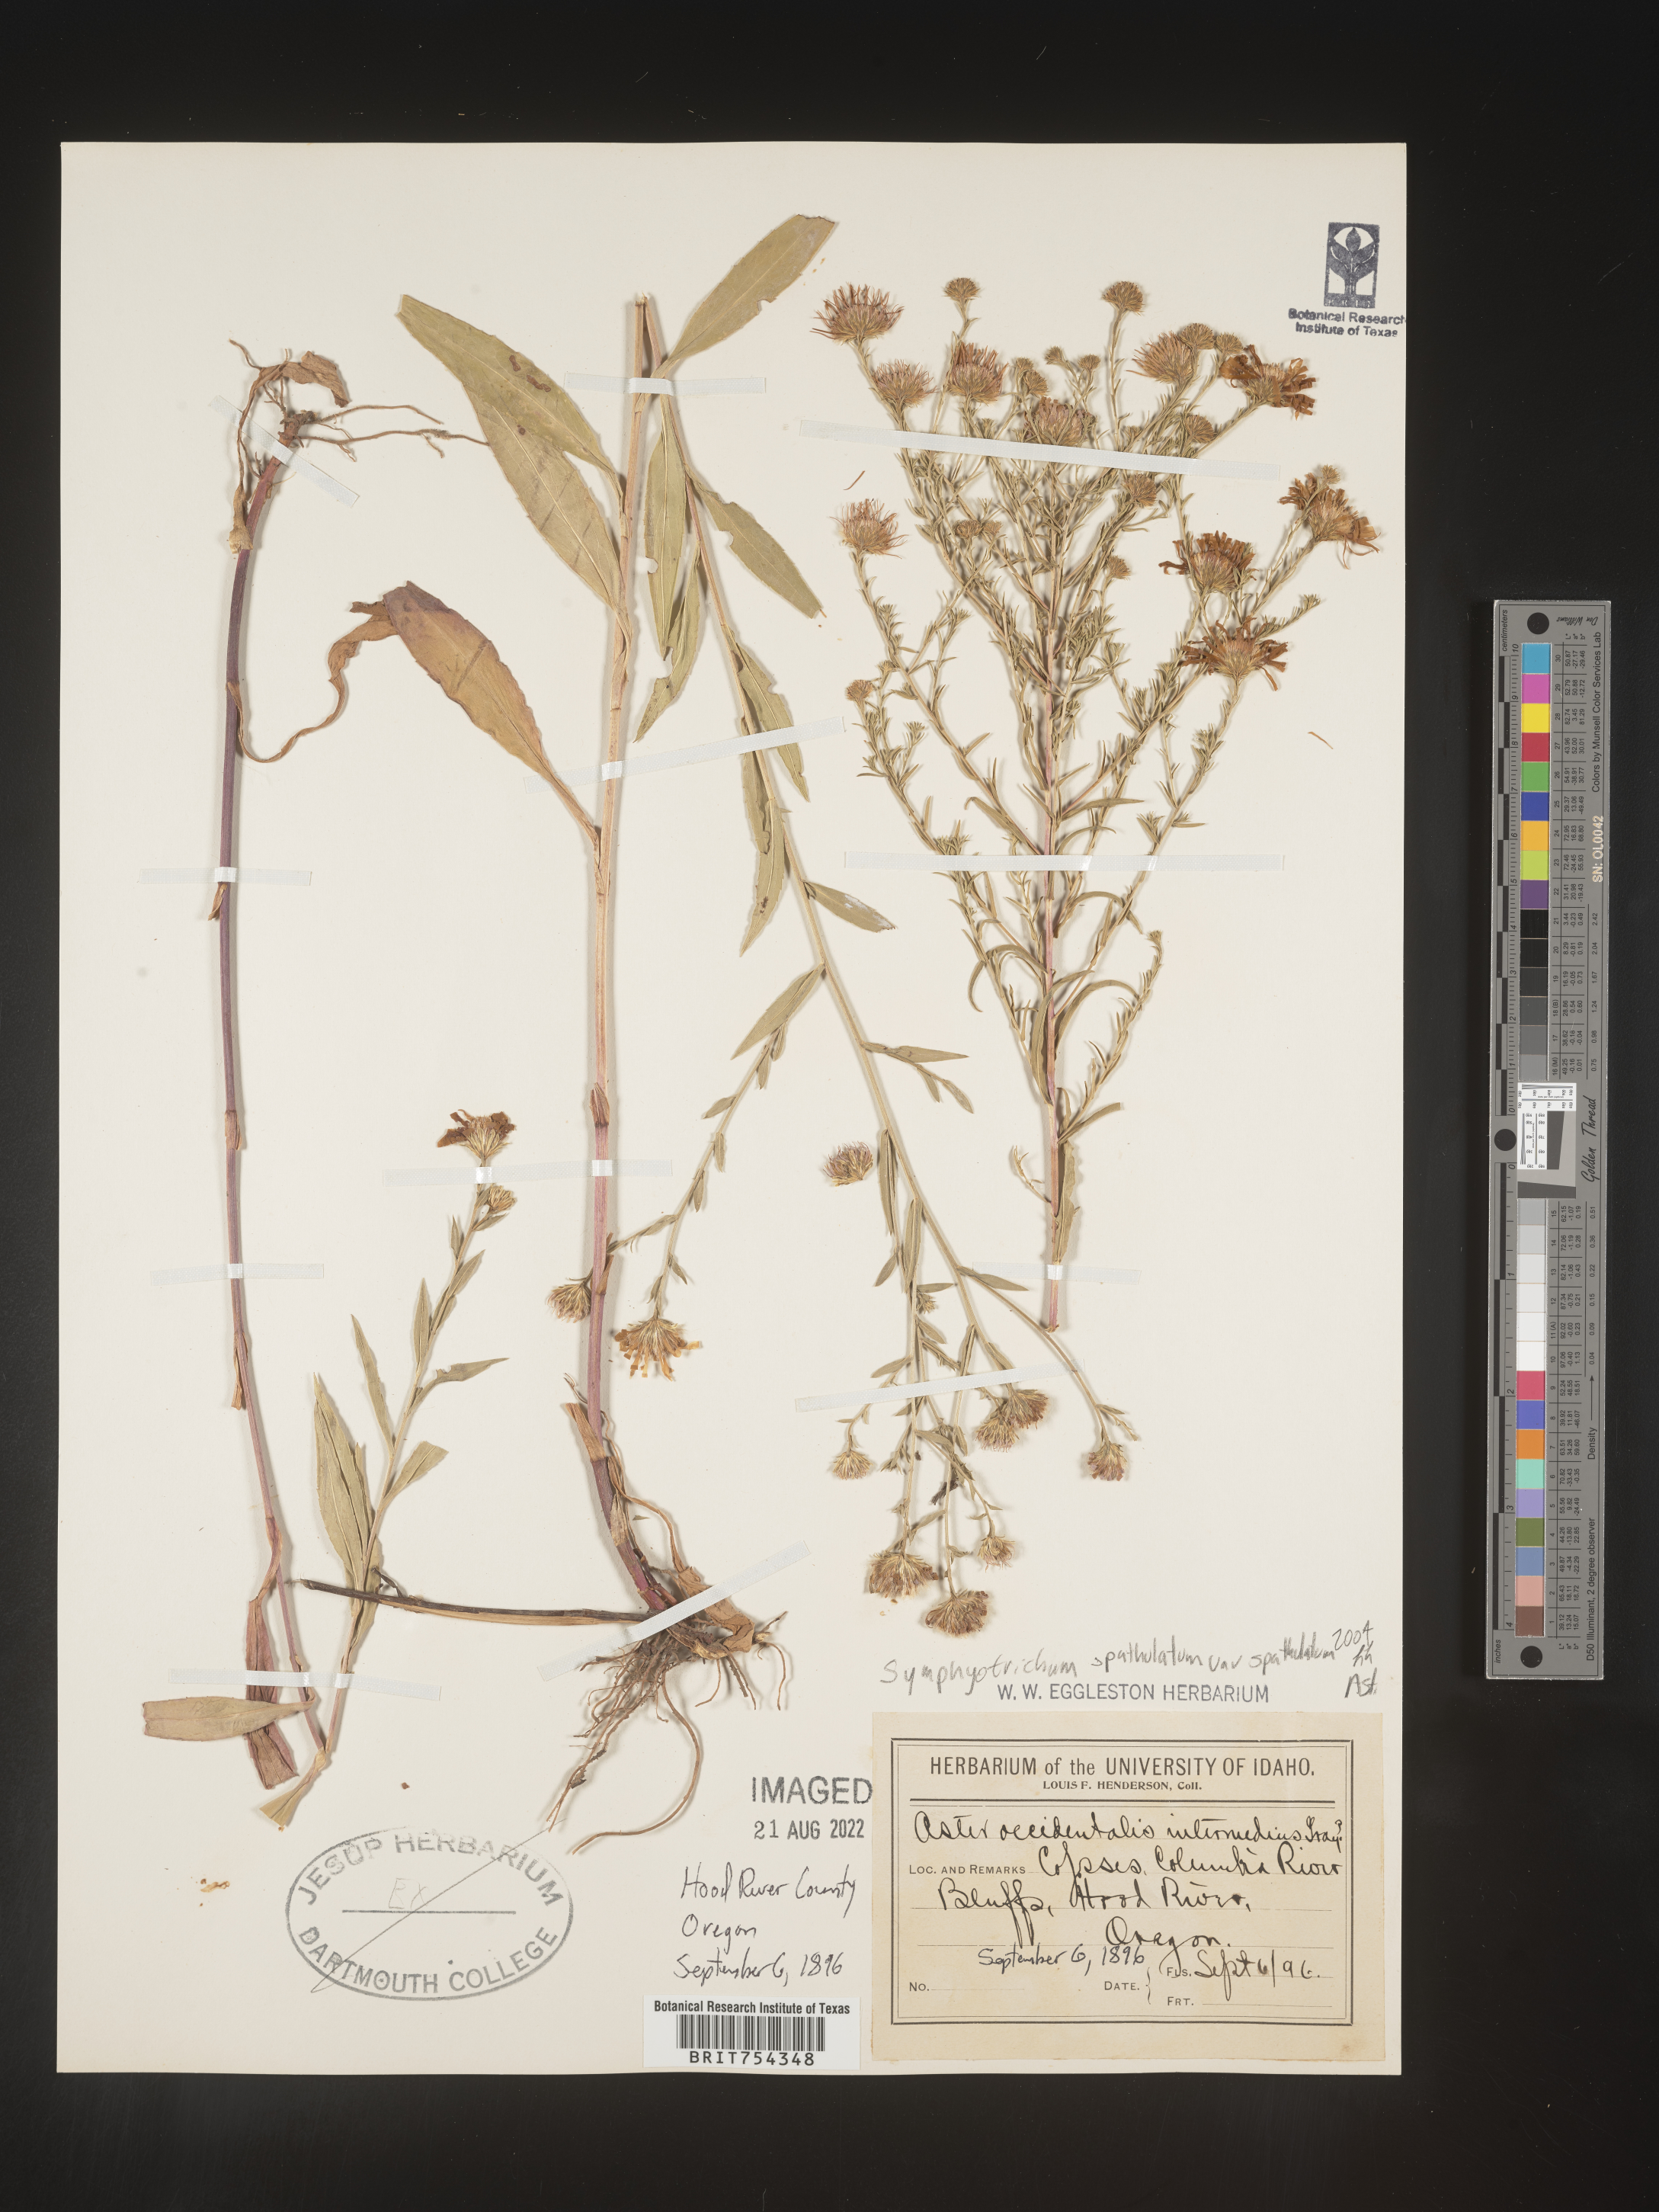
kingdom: Plantae
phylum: Tracheophyta
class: Magnoliopsida
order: Asterales
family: Asteraceae
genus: Symphyotrichum
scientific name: Symphyotrichum spathulatum
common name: Western mountain aster
